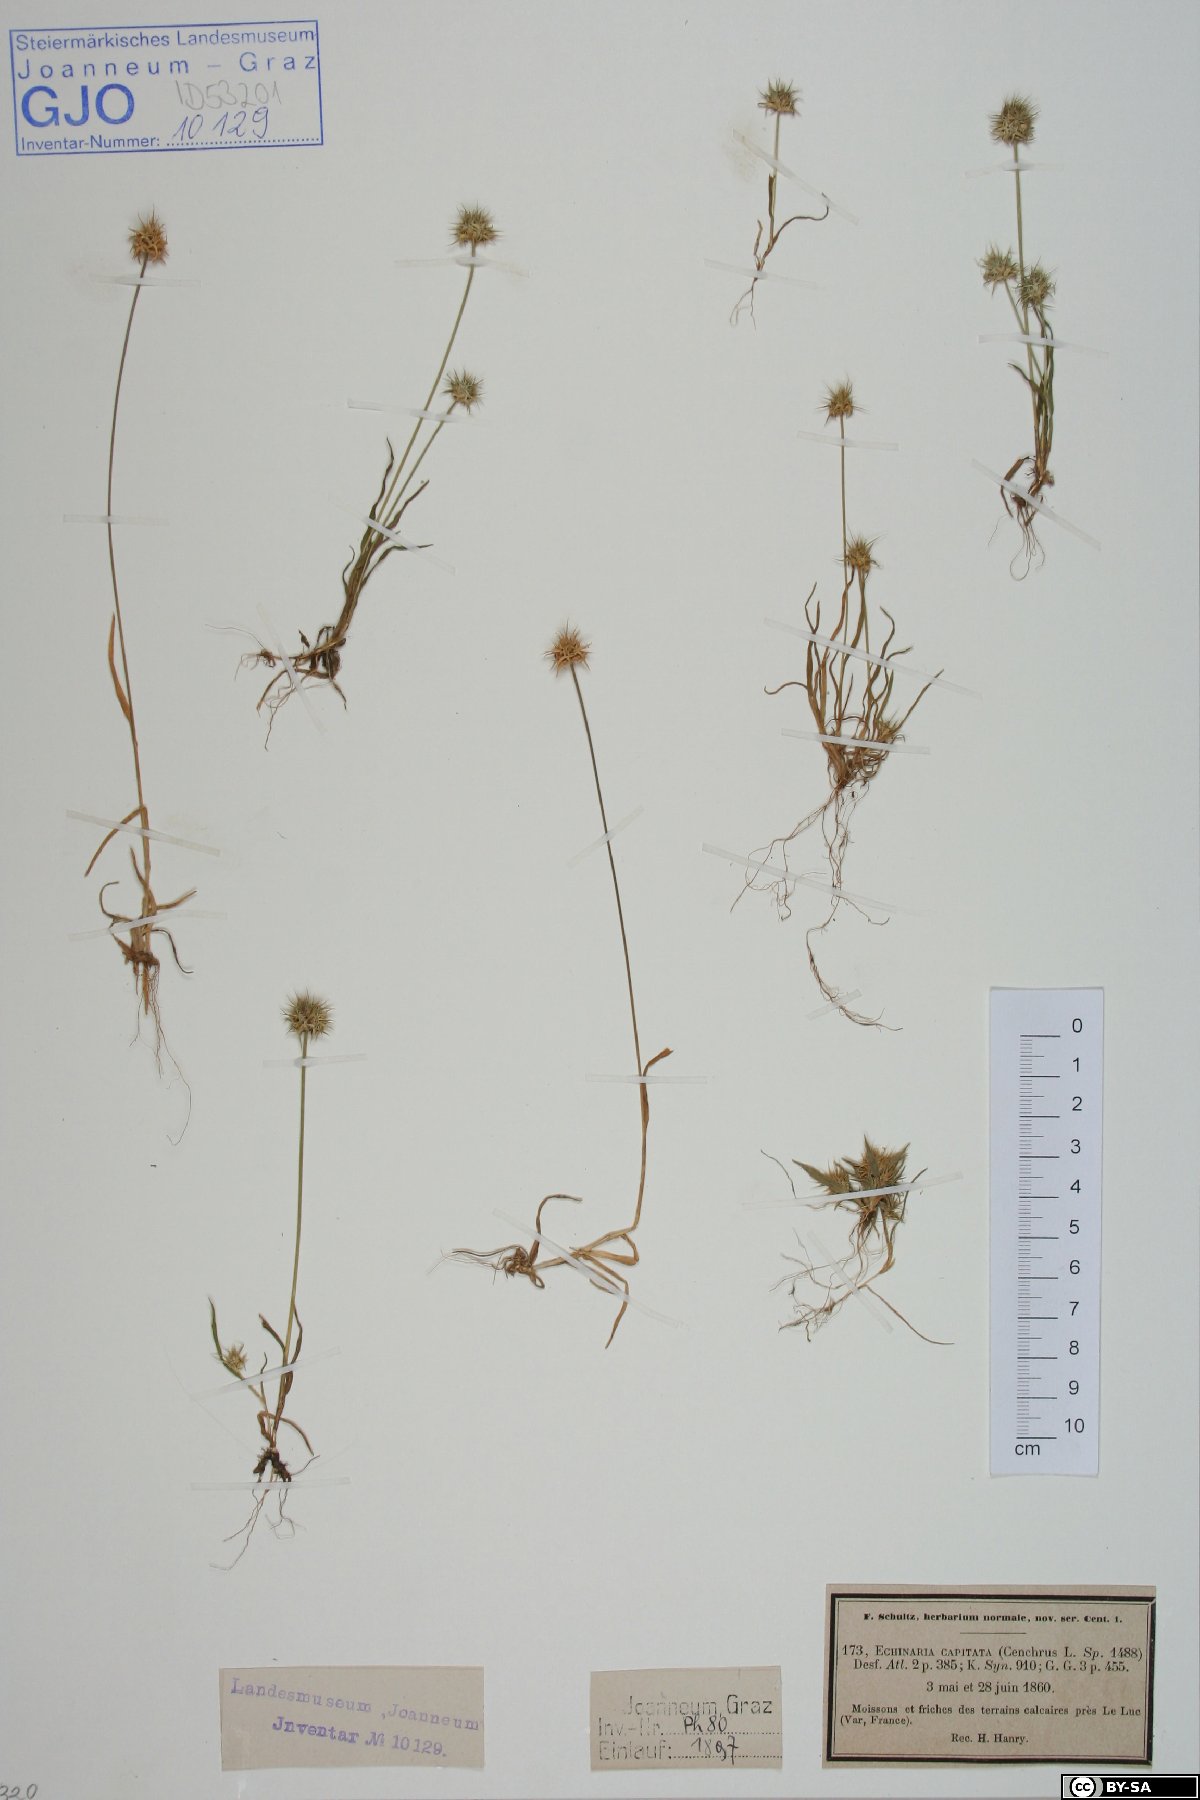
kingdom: Plantae
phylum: Tracheophyta
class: Liliopsida
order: Poales
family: Poaceae
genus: Echinaria
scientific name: Echinaria capitata
